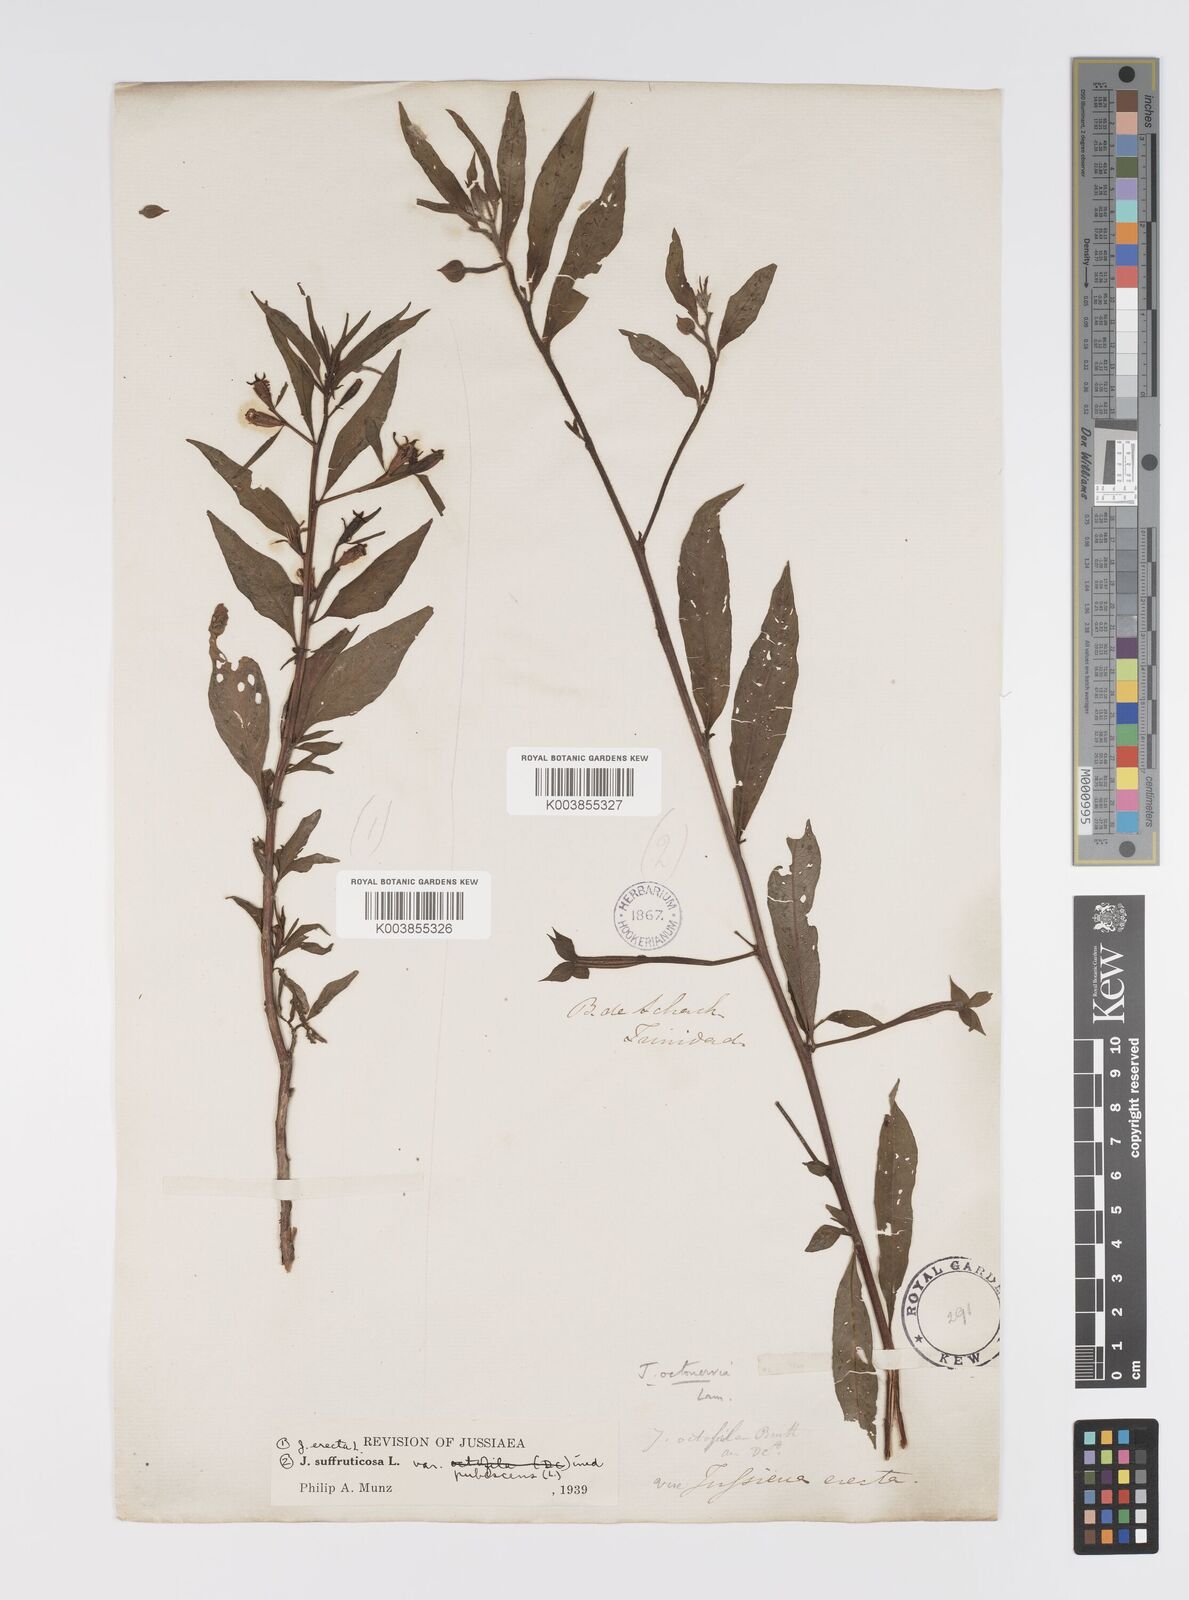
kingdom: Plantae
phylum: Tracheophyta
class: Magnoliopsida
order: Myrtales
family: Onagraceae
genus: Ludwigia
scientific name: Ludwigia
